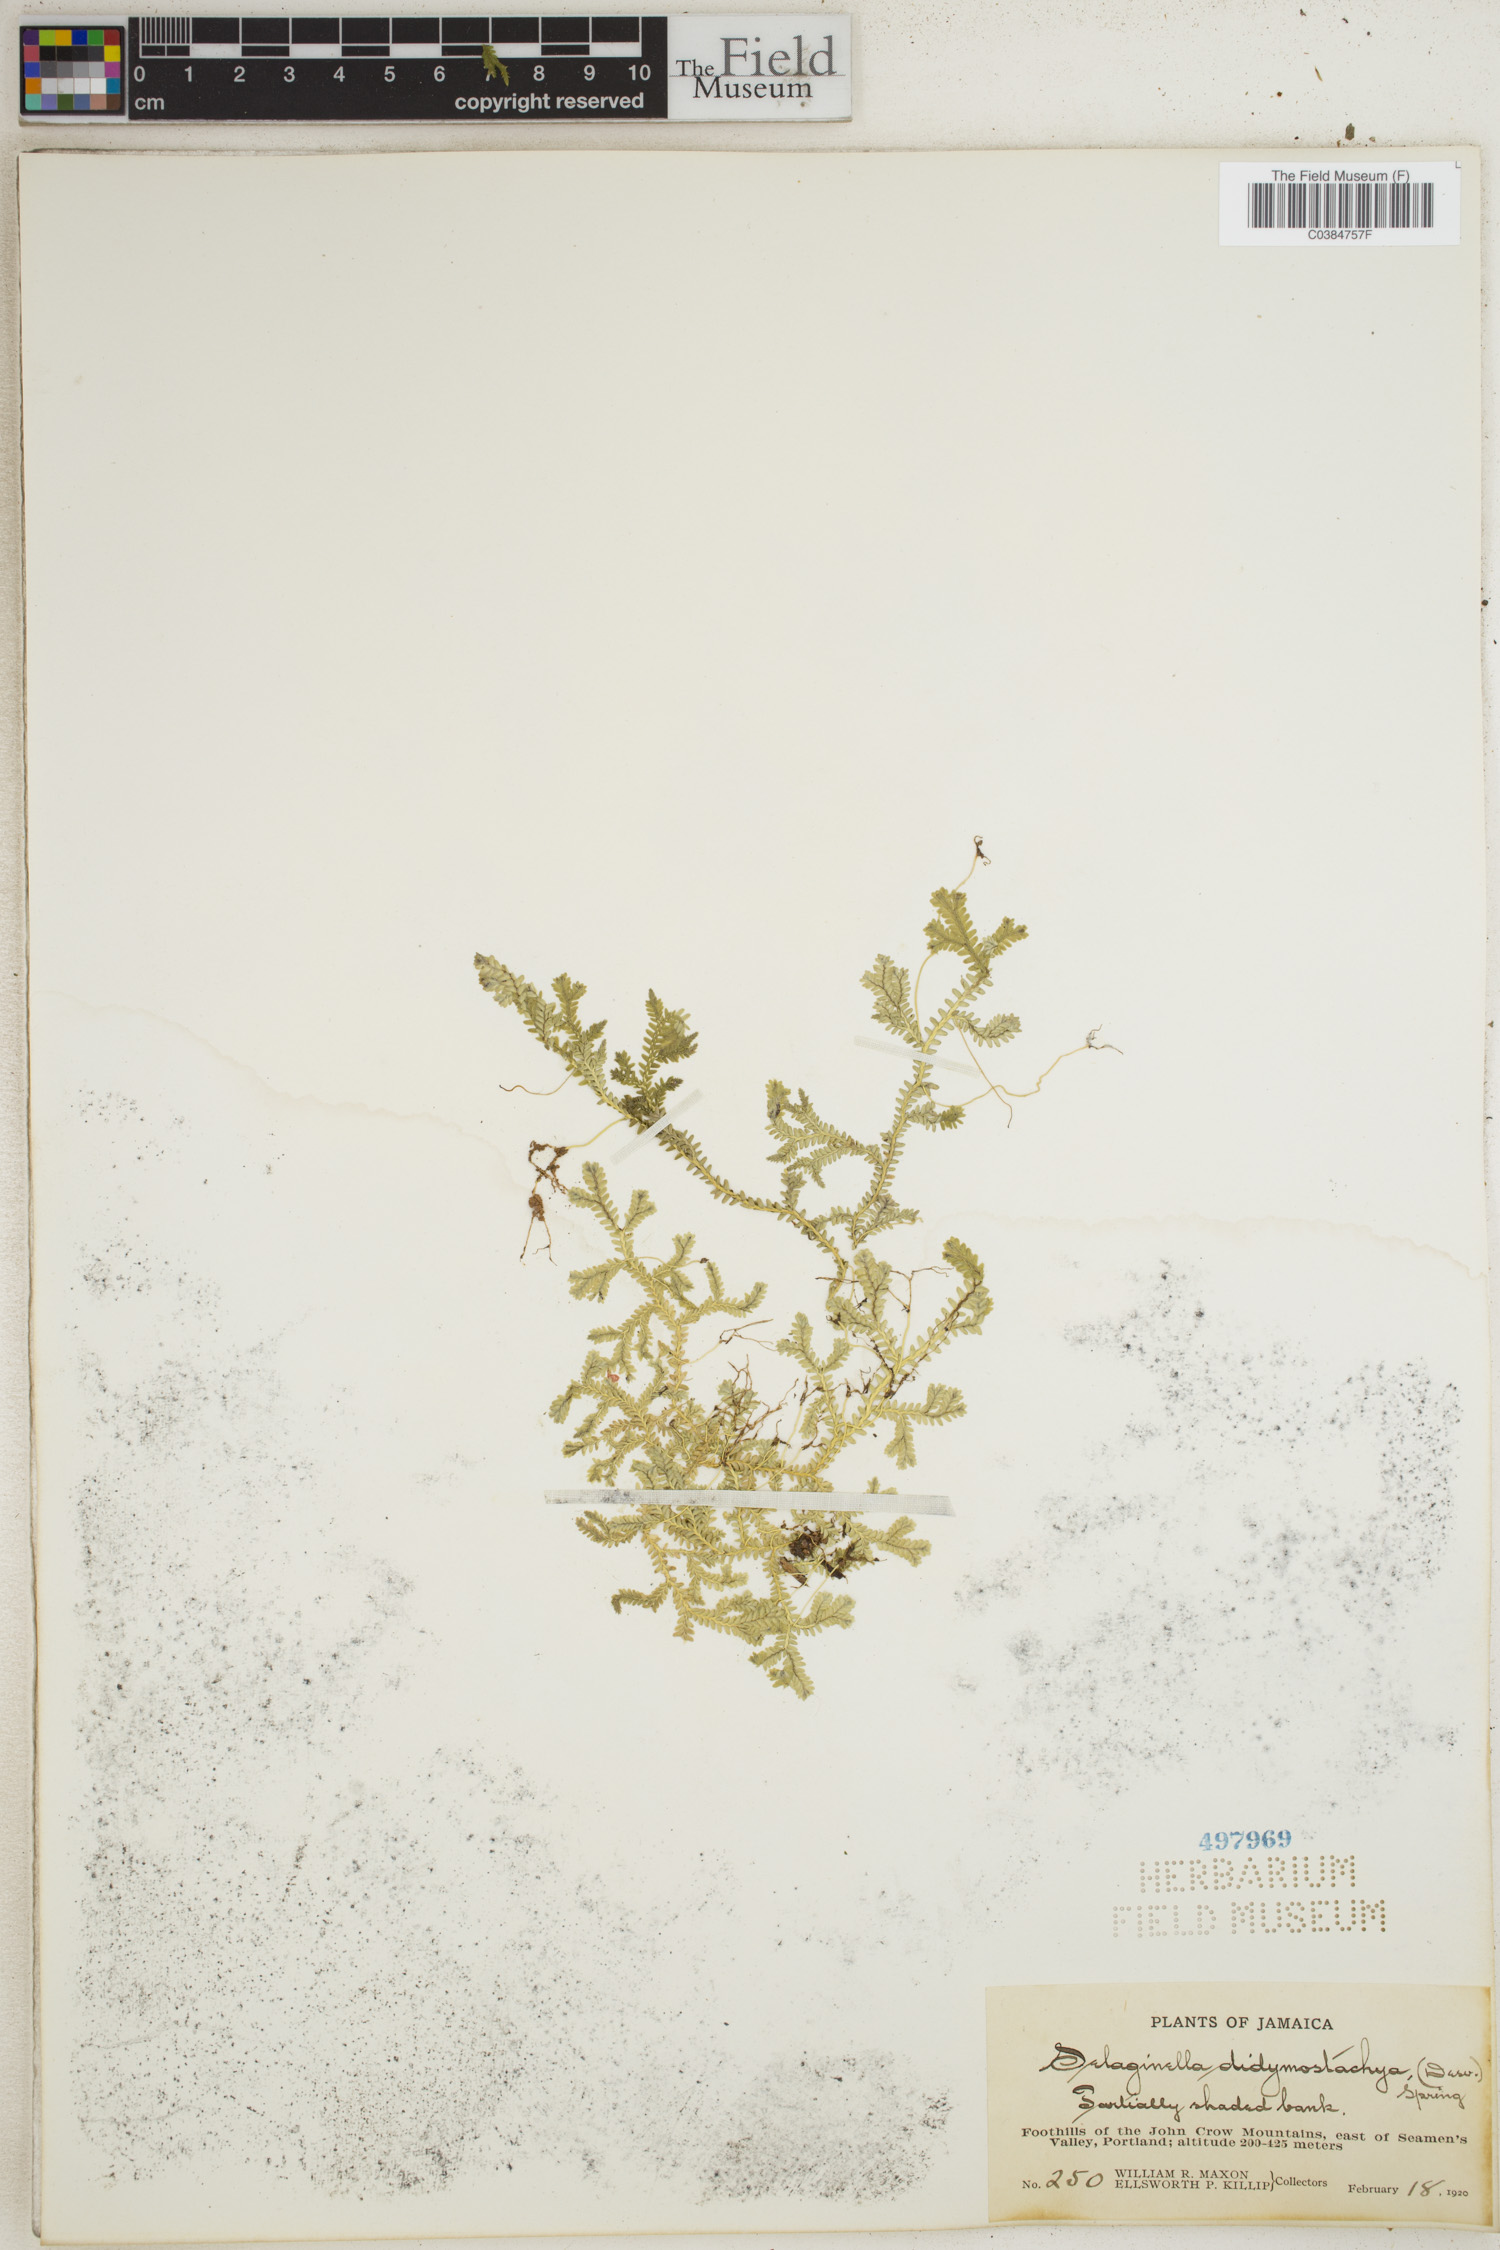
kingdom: Plantae
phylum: Tracheophyta
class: Lycopodiopsida
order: Selaginellales
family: Selaginellaceae
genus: Selaginella
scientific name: Selaginella denudata
